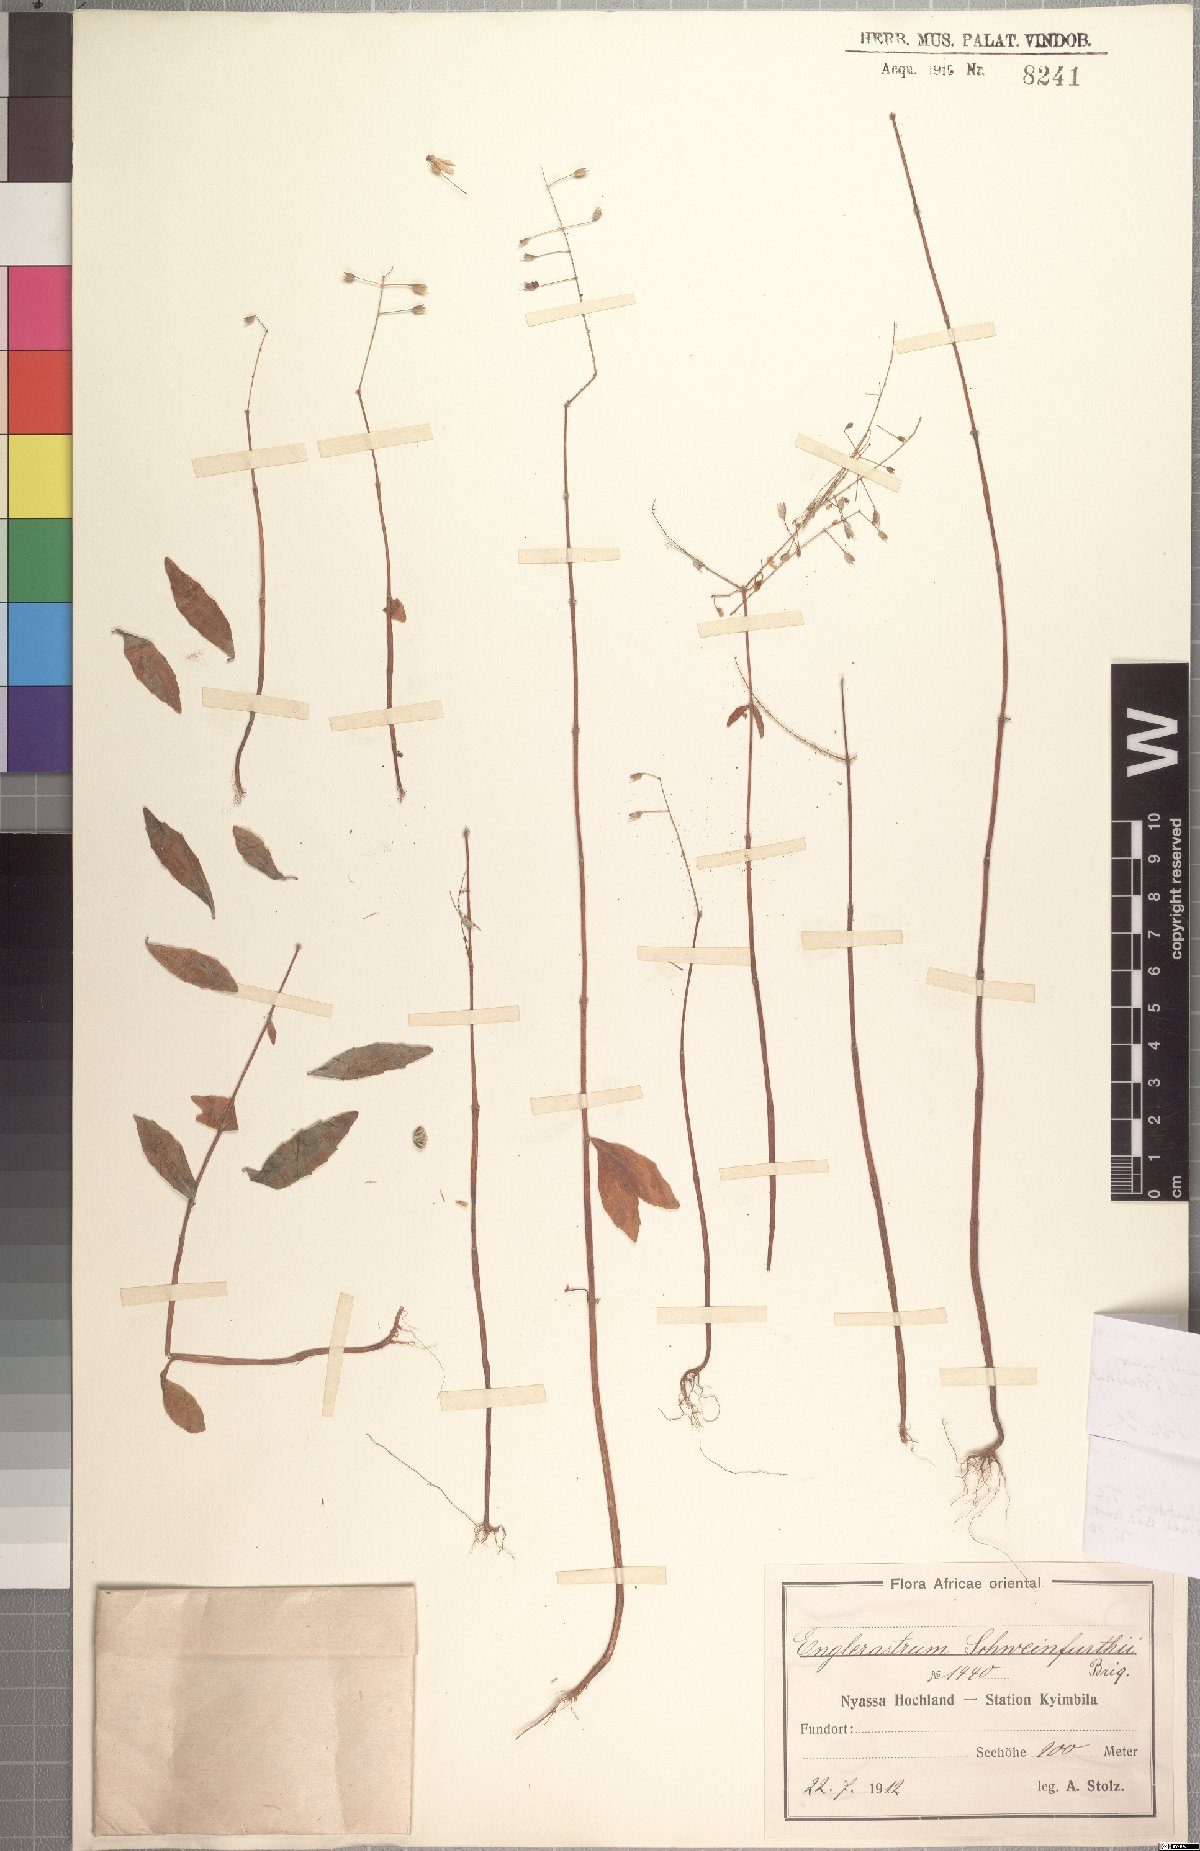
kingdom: Plantae
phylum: Tracheophyta
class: Magnoliopsida
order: Lamiales
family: Lamiaceae
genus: Coleus
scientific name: Coleus gracillimus
